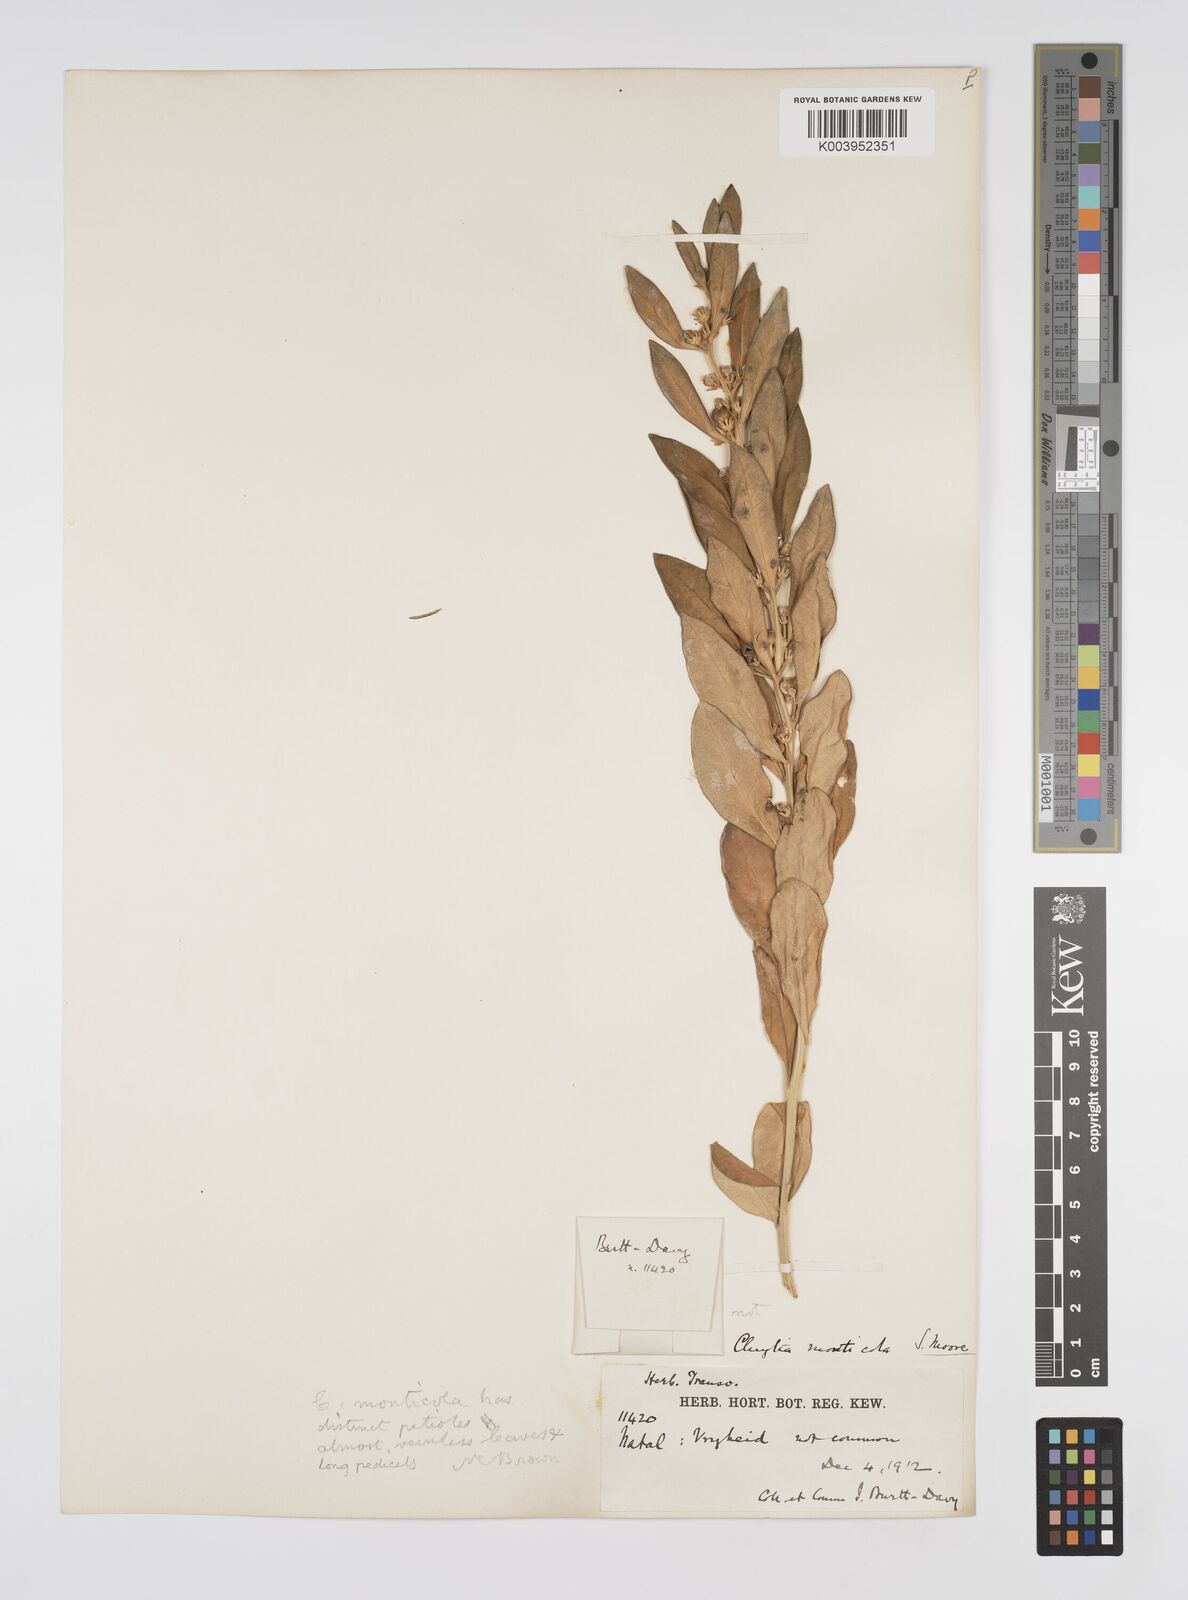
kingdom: Plantae
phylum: Tracheophyta
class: Magnoliopsida
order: Malpighiales
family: Peraceae
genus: Clutia
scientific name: Clutia monticola
